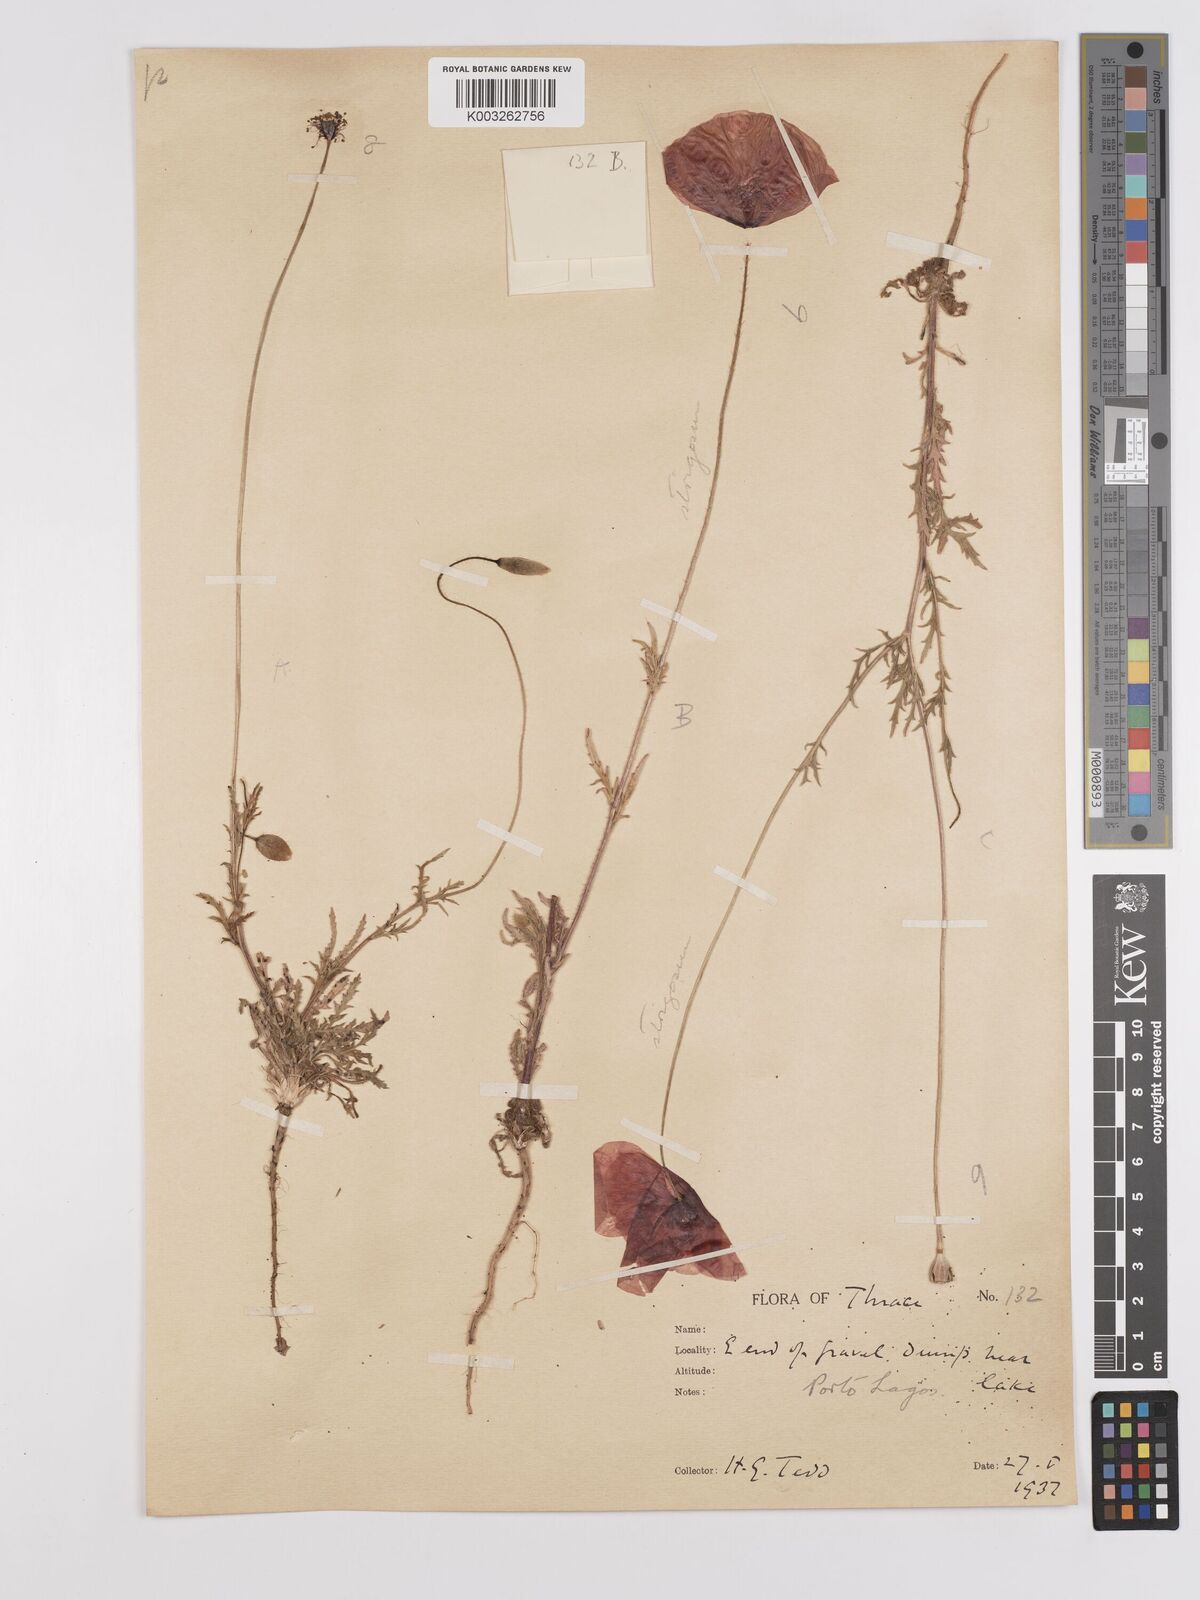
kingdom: Plantae
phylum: Tracheophyta
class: Magnoliopsida
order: Ranunculales
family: Papaveraceae
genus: Papaver
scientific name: Papaver
